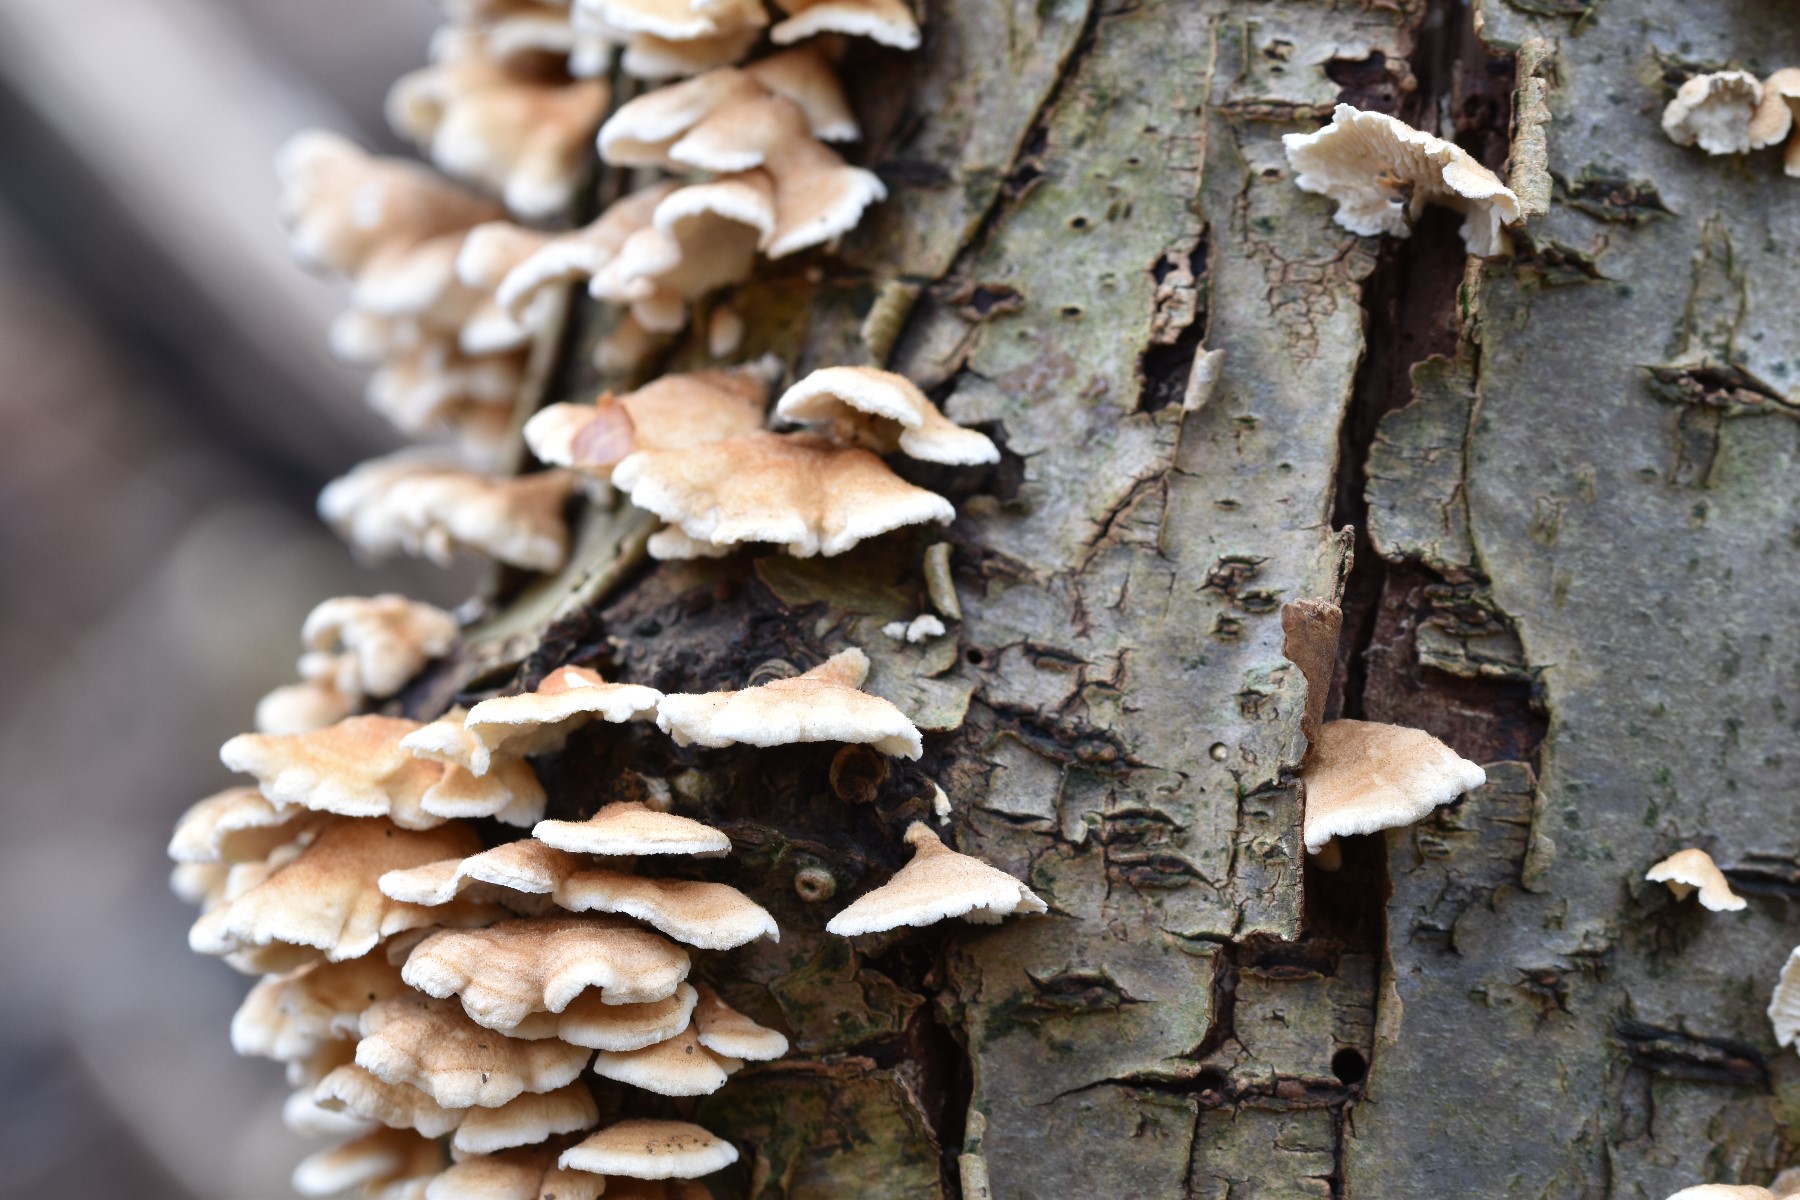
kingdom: Fungi
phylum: Basidiomycota
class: Agaricomycetes
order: Amylocorticiales
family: Amylocorticiaceae
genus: Plicaturopsis
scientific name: Plicaturopsis crispa
